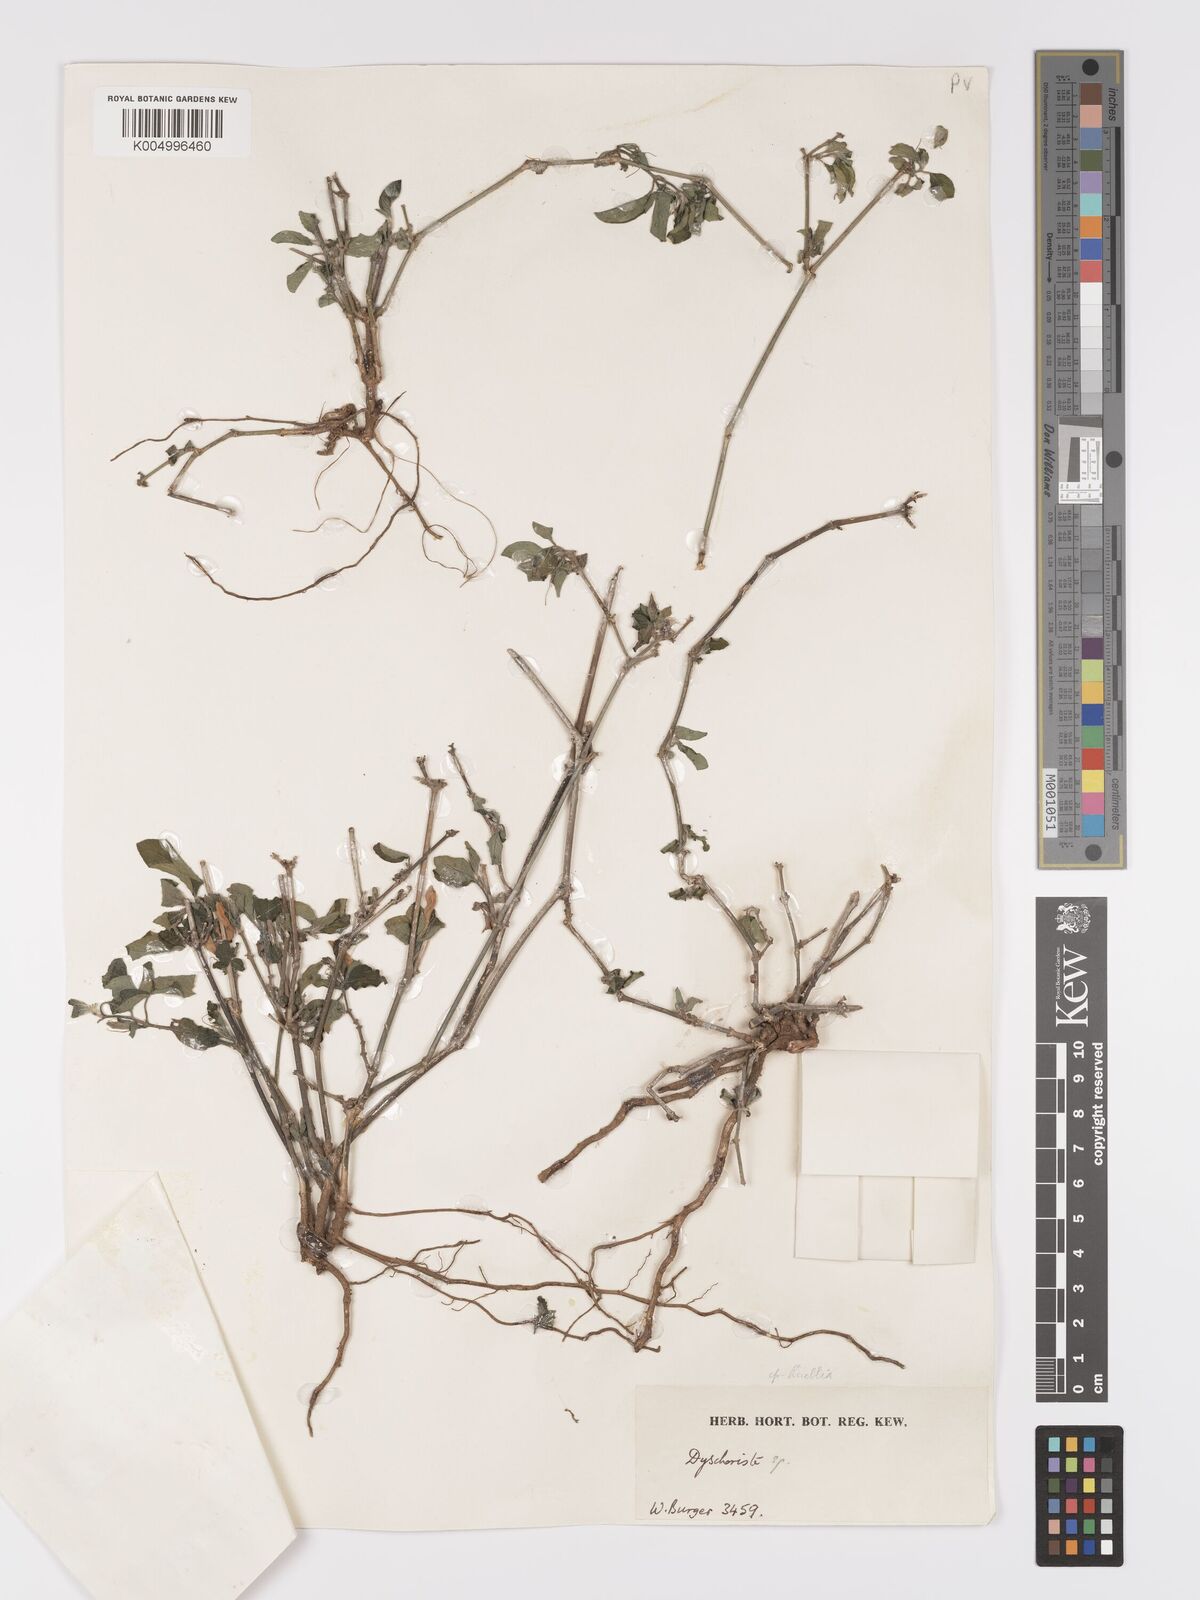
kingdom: Plantae
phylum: Tracheophyta
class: Magnoliopsida
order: Lamiales
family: Acanthaceae
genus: Ruellia
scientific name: Ruellia
